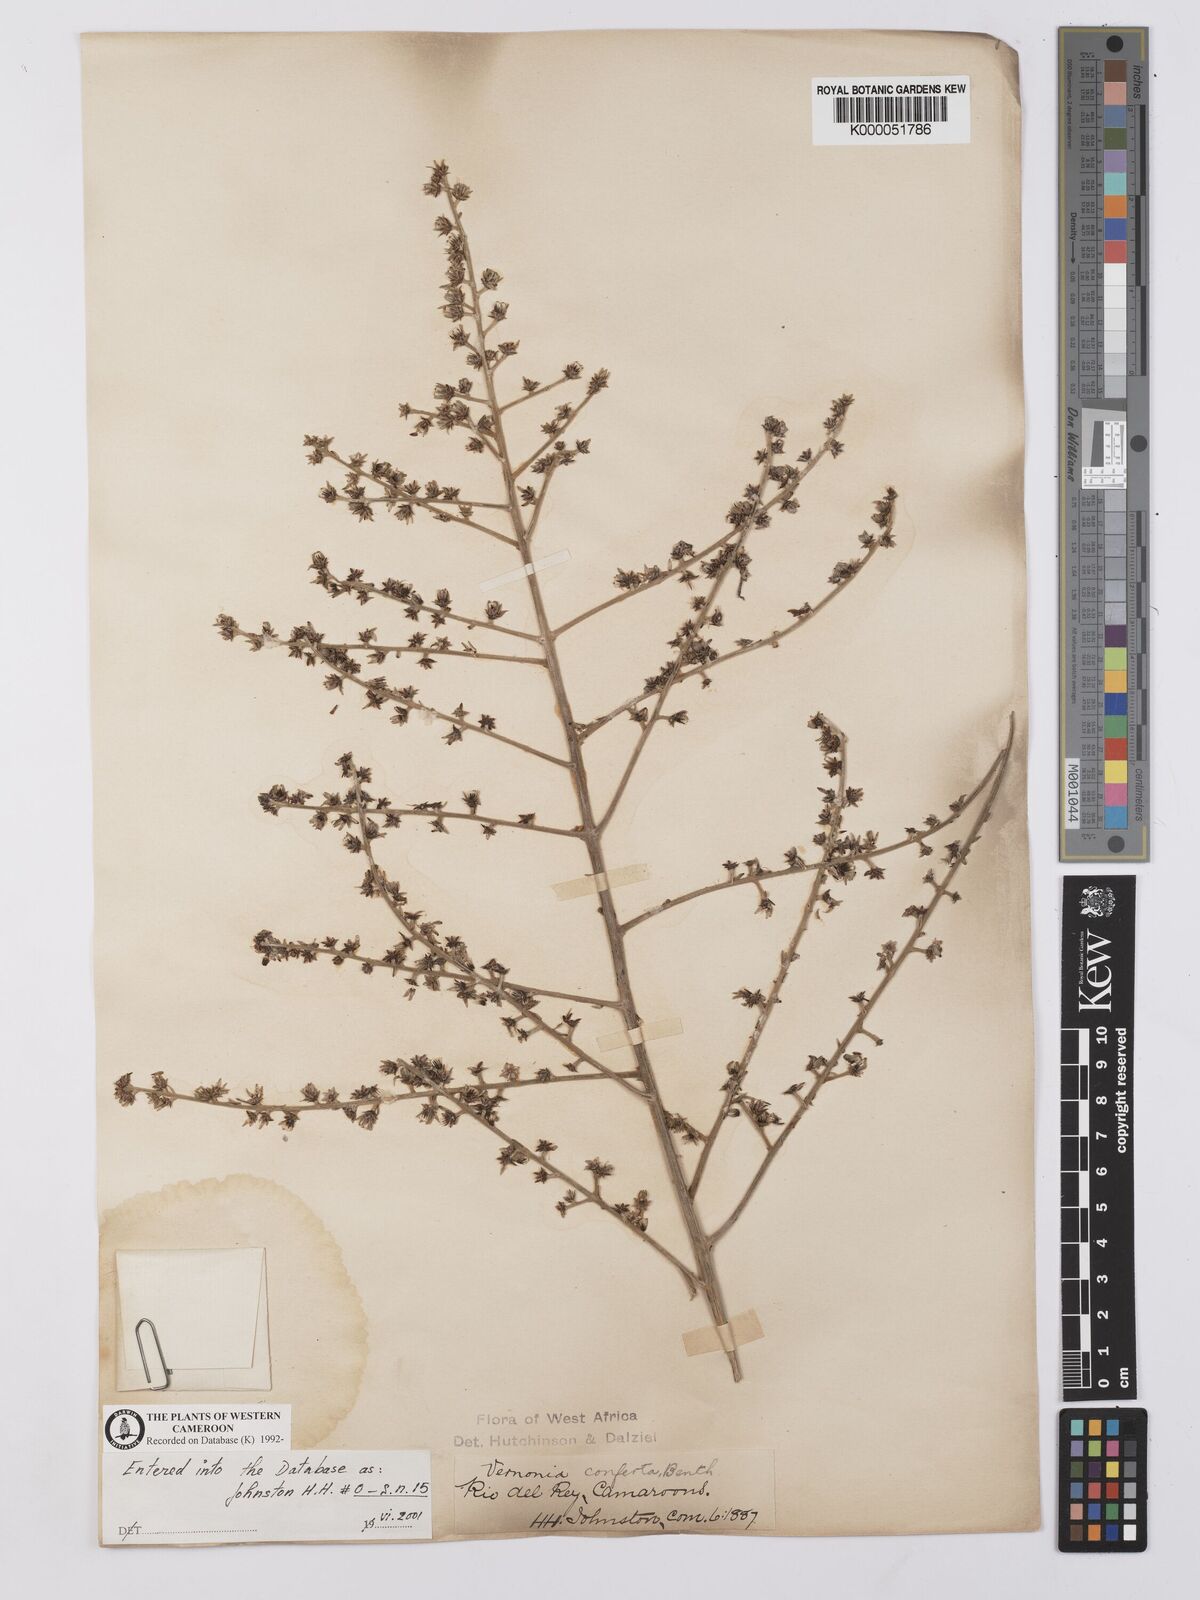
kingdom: Plantae
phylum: Tracheophyta
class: Magnoliopsida
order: Asterales
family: Asteraceae
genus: Brenandendron
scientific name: Brenandendron donianum
